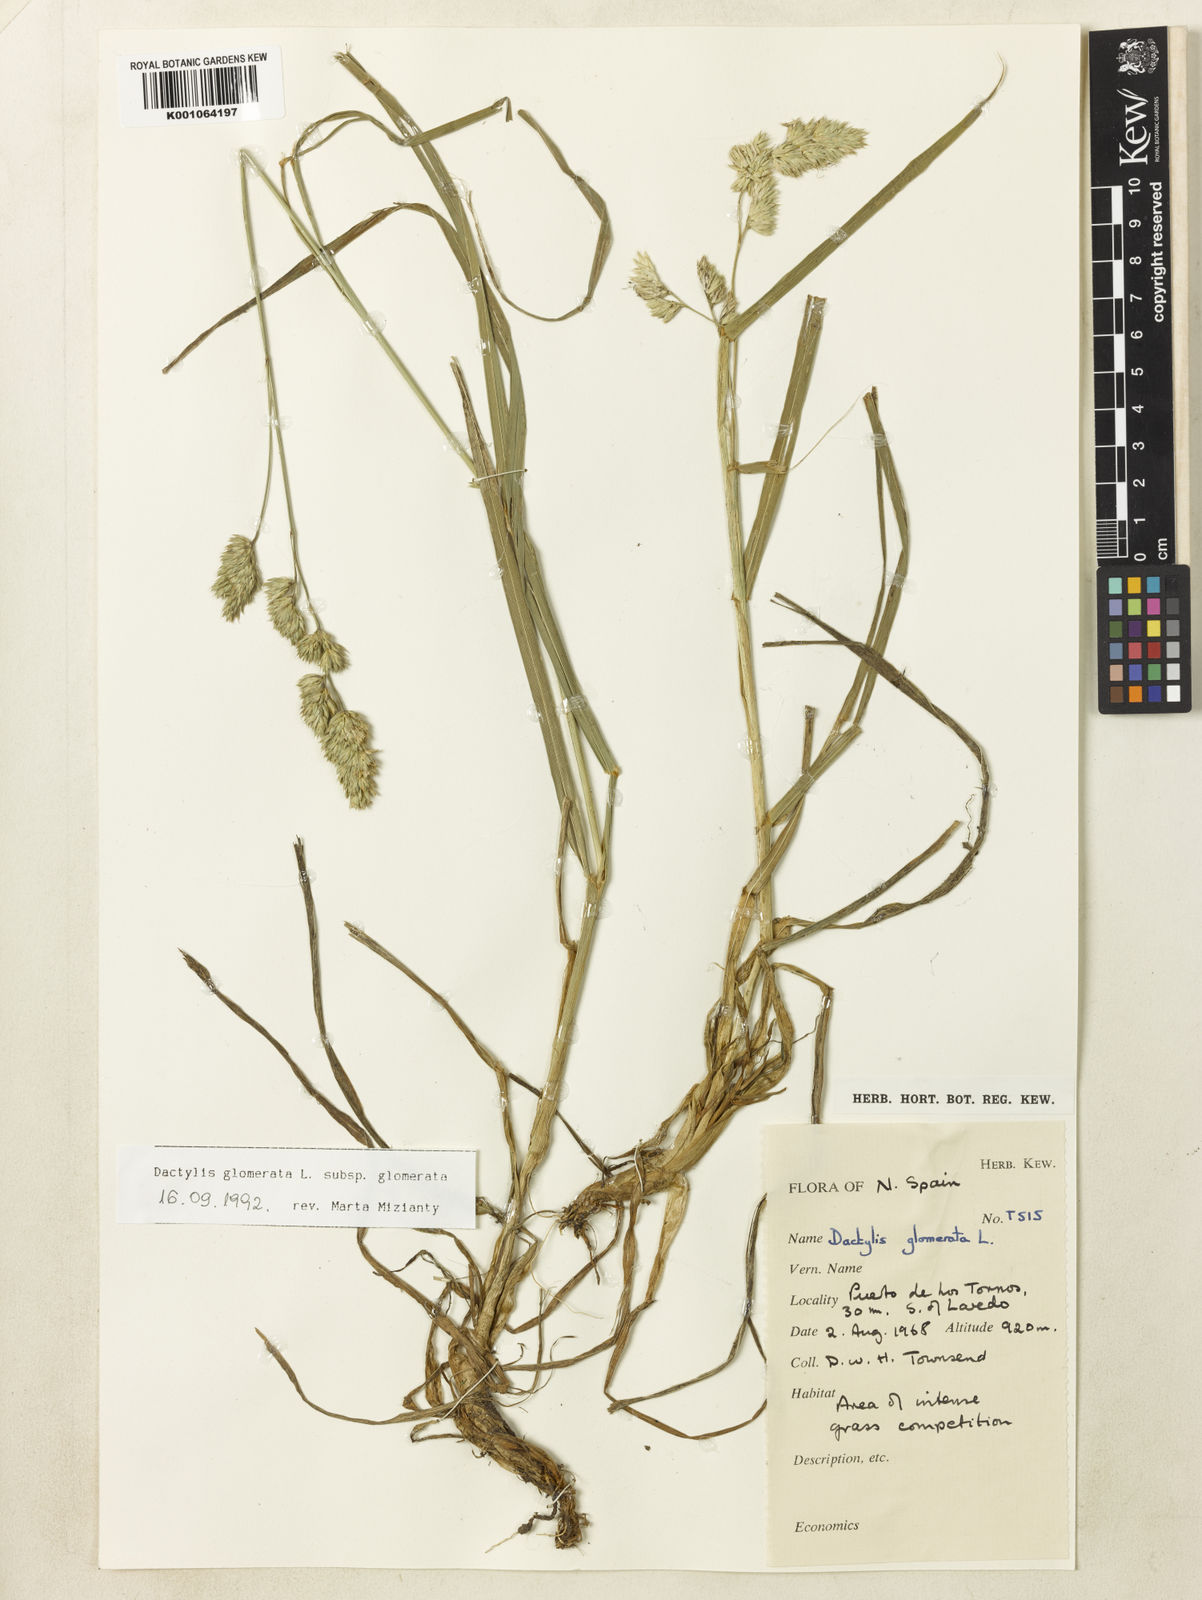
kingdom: Plantae
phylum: Tracheophyta
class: Liliopsida
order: Poales
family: Poaceae
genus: Dactylis
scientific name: Dactylis glomerata
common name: Orchardgrass
